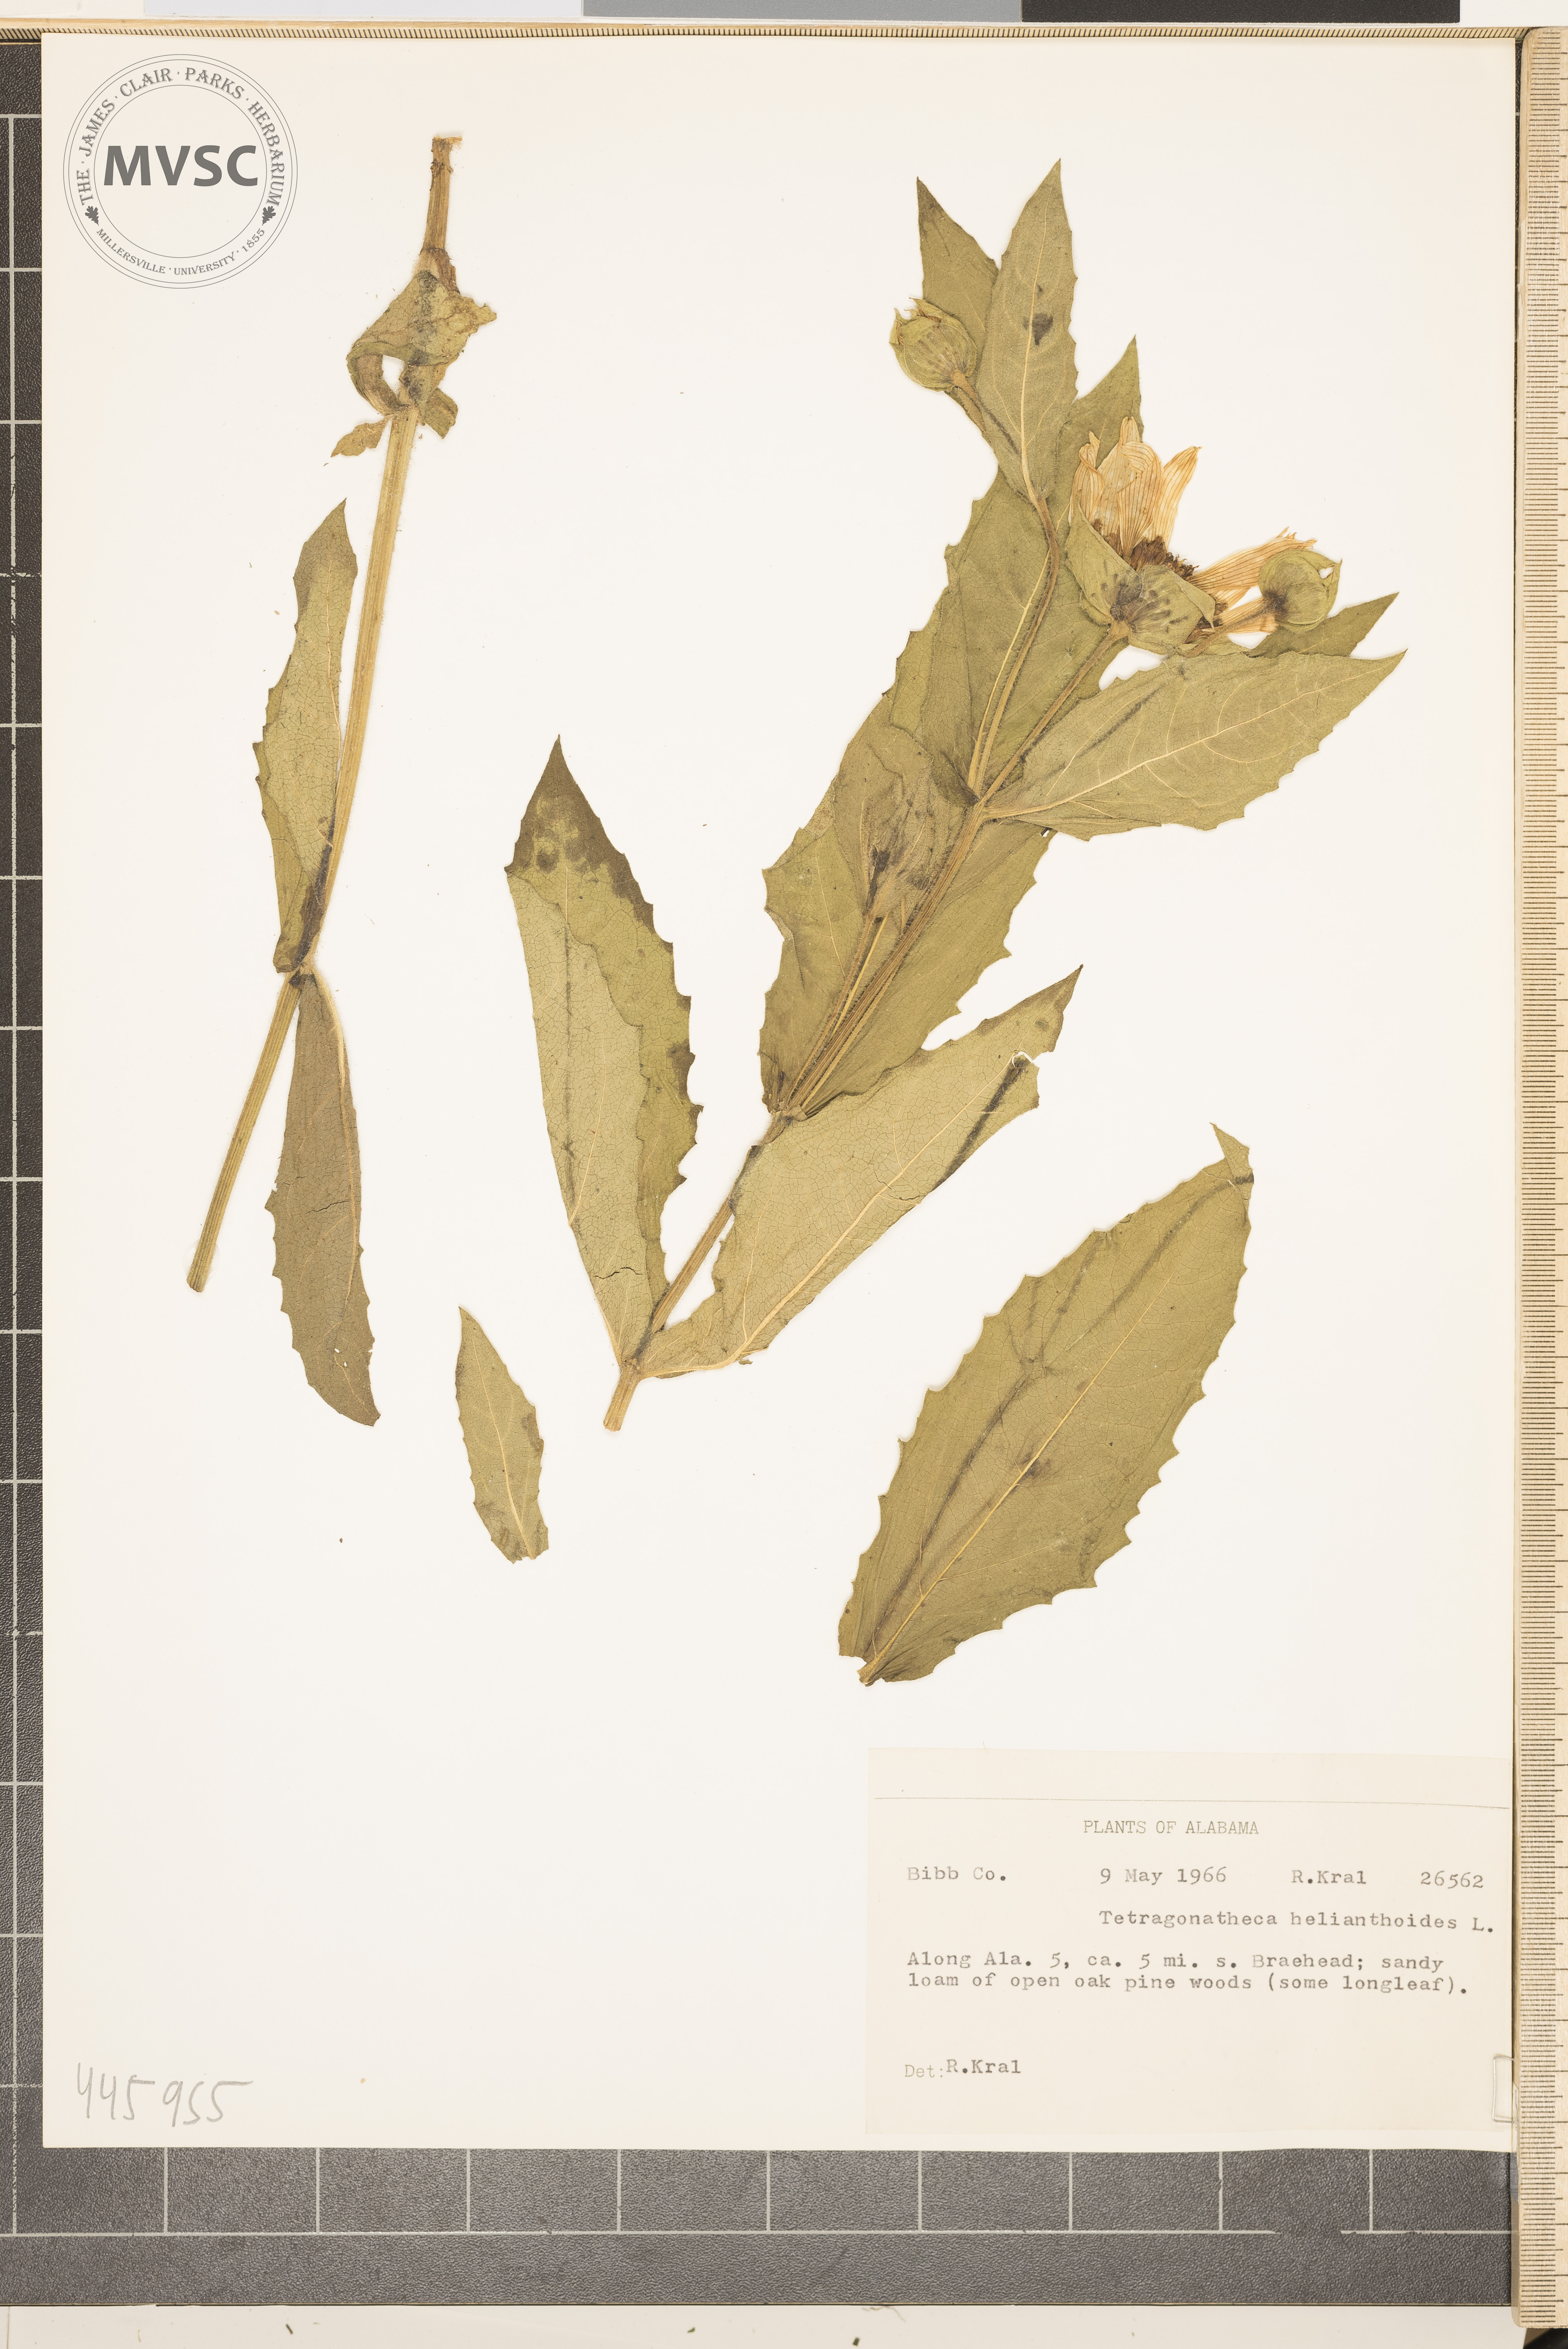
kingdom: Plantae
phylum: Tracheophyta
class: Magnoliopsida
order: Asterales
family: Asteraceae
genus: Tetragonotheca
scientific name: Tetragonotheca helianthoides
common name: Pineland-ginseng
